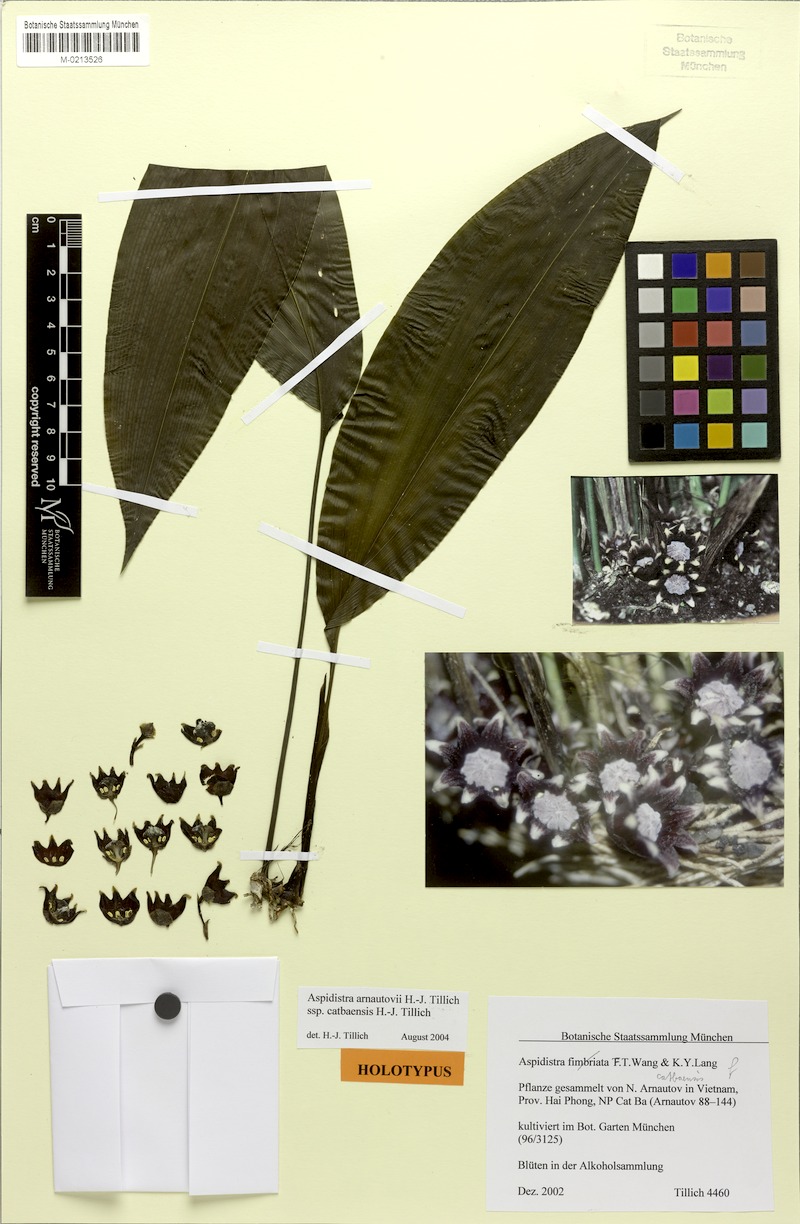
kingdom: Plantae
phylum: Tracheophyta
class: Liliopsida
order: Asparagales
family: Asparagaceae
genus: Aspidistra
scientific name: Aspidistra arnautovii
